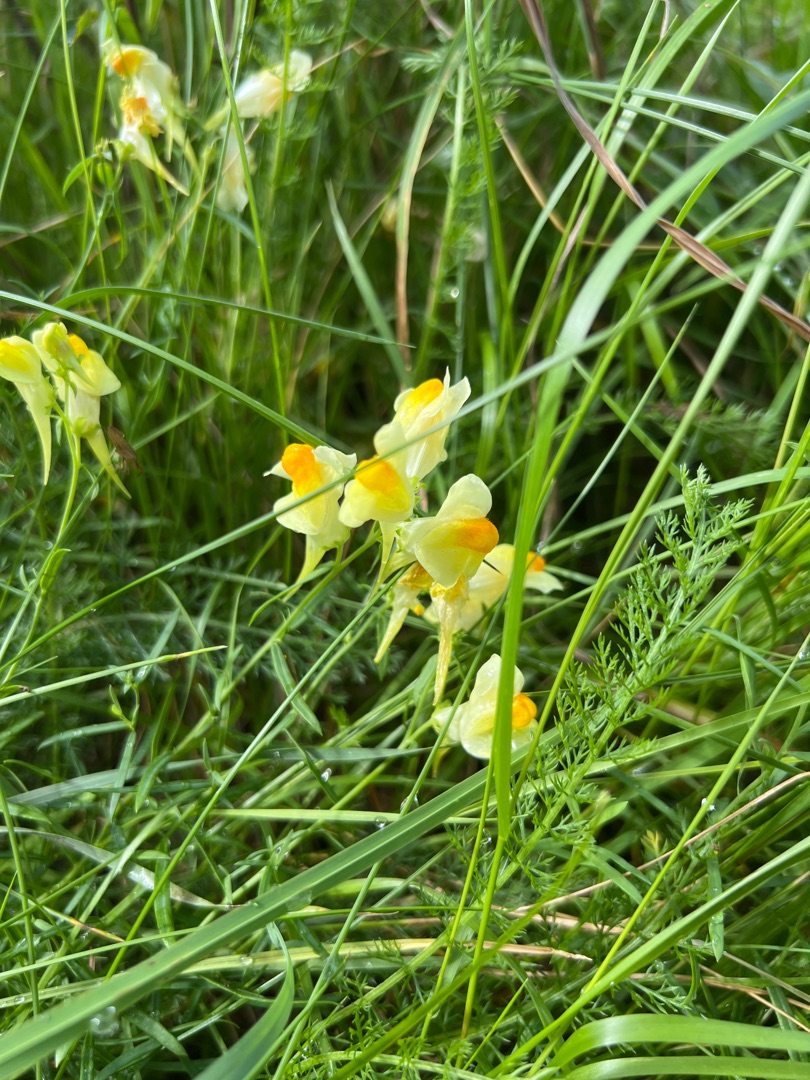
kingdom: Plantae
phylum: Tracheophyta
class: Magnoliopsida
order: Lamiales
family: Plantaginaceae
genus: Linaria
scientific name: Linaria vulgaris
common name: Almindelig torskemund
